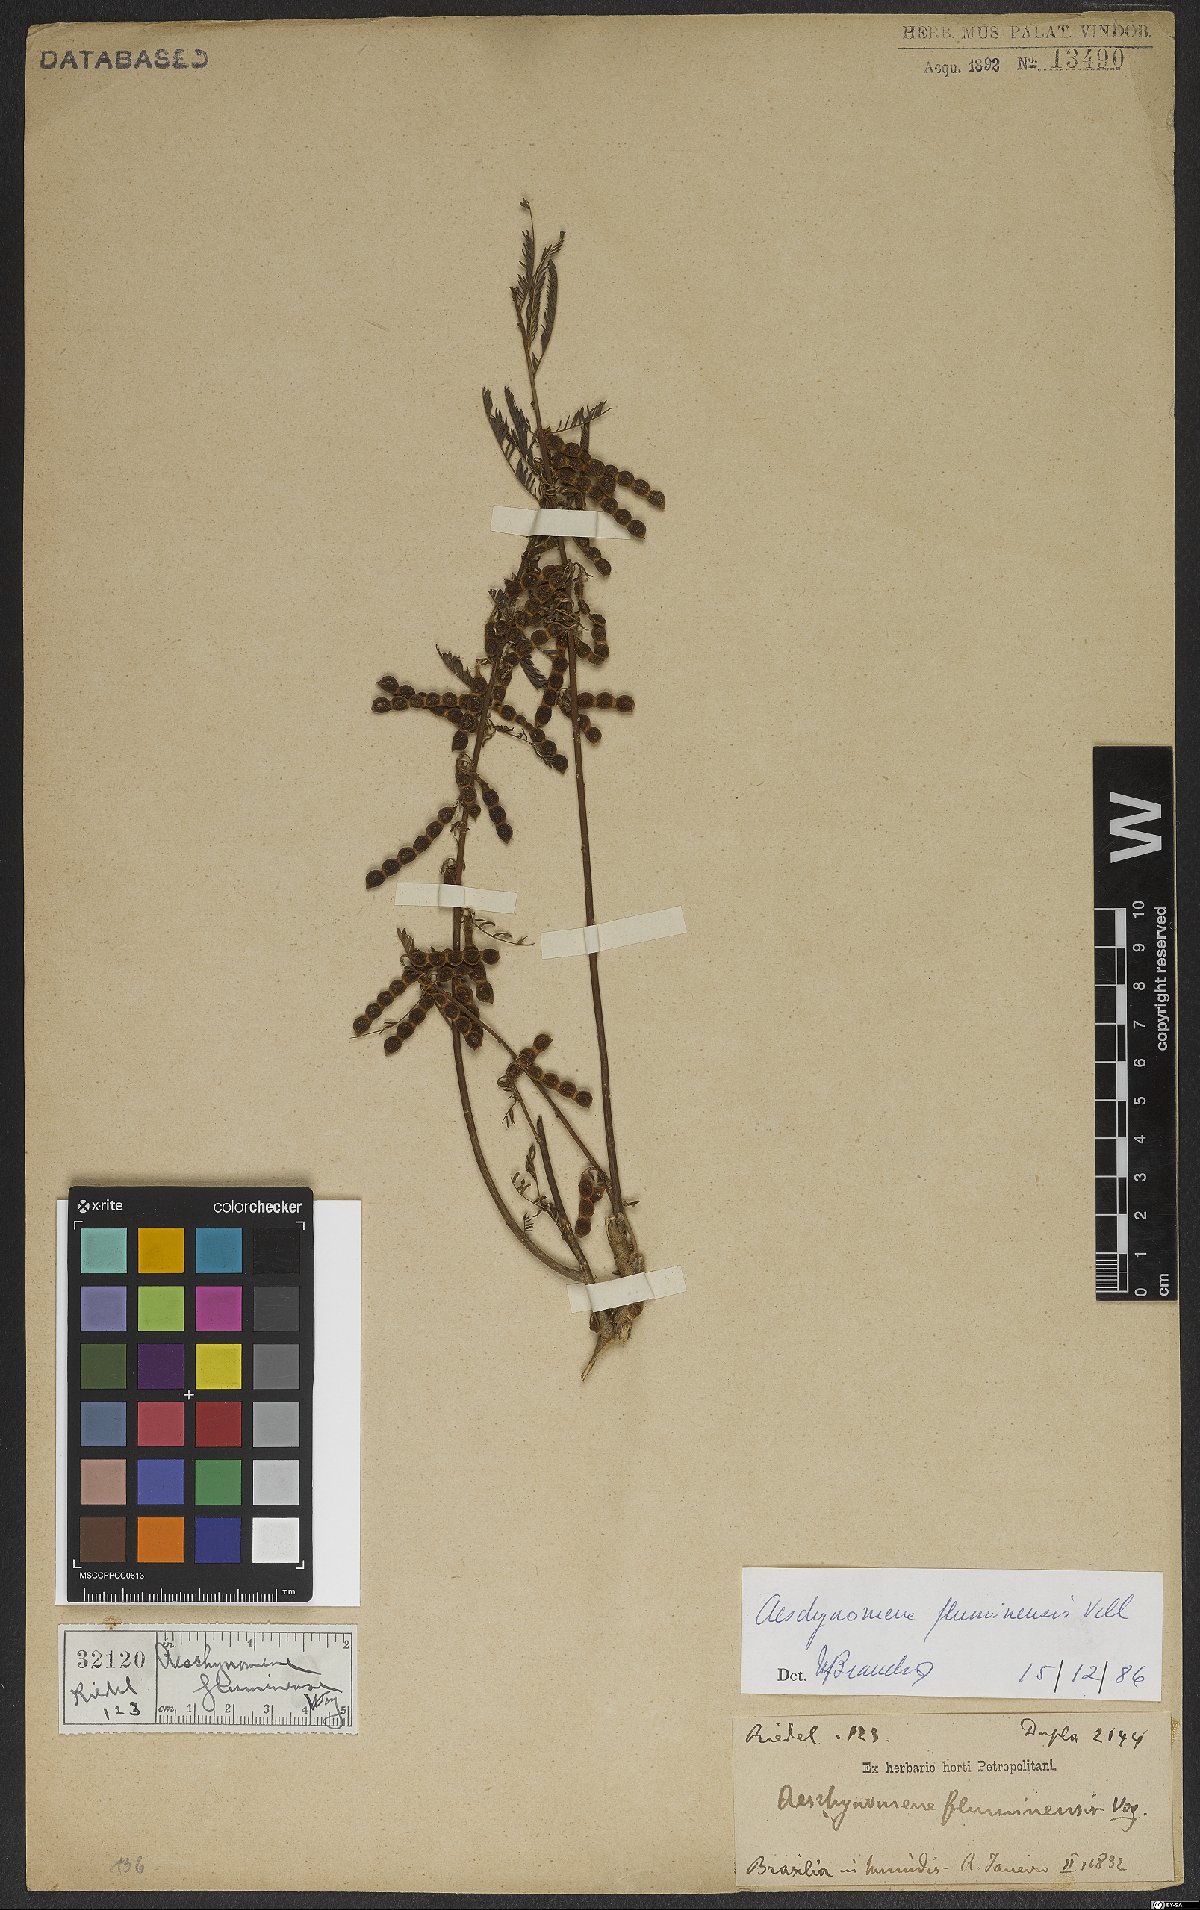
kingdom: Plantae
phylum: Tracheophyta
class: Magnoliopsida
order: Fabales
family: Fabaceae
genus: Aeschynomene
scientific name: Aeschynomene fluminensis
